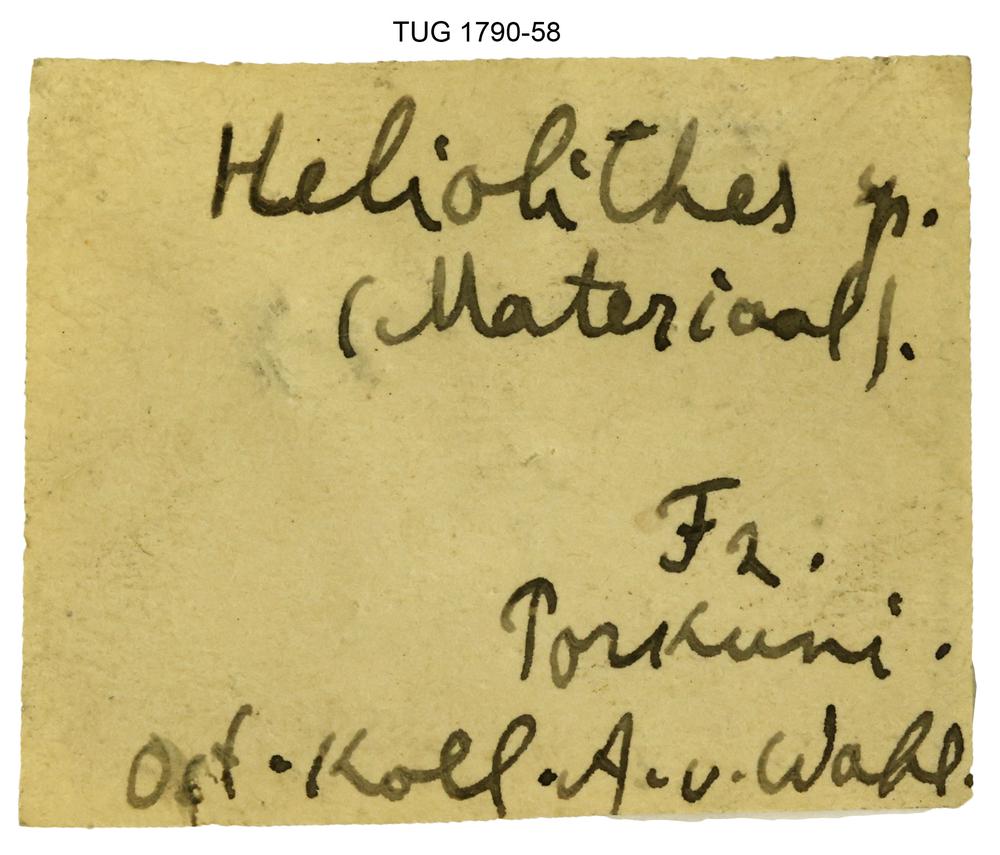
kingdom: Animalia
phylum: Mollusca
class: Gastropoda
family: Helicotomidae
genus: Helicotoma
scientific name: Helicotoma
